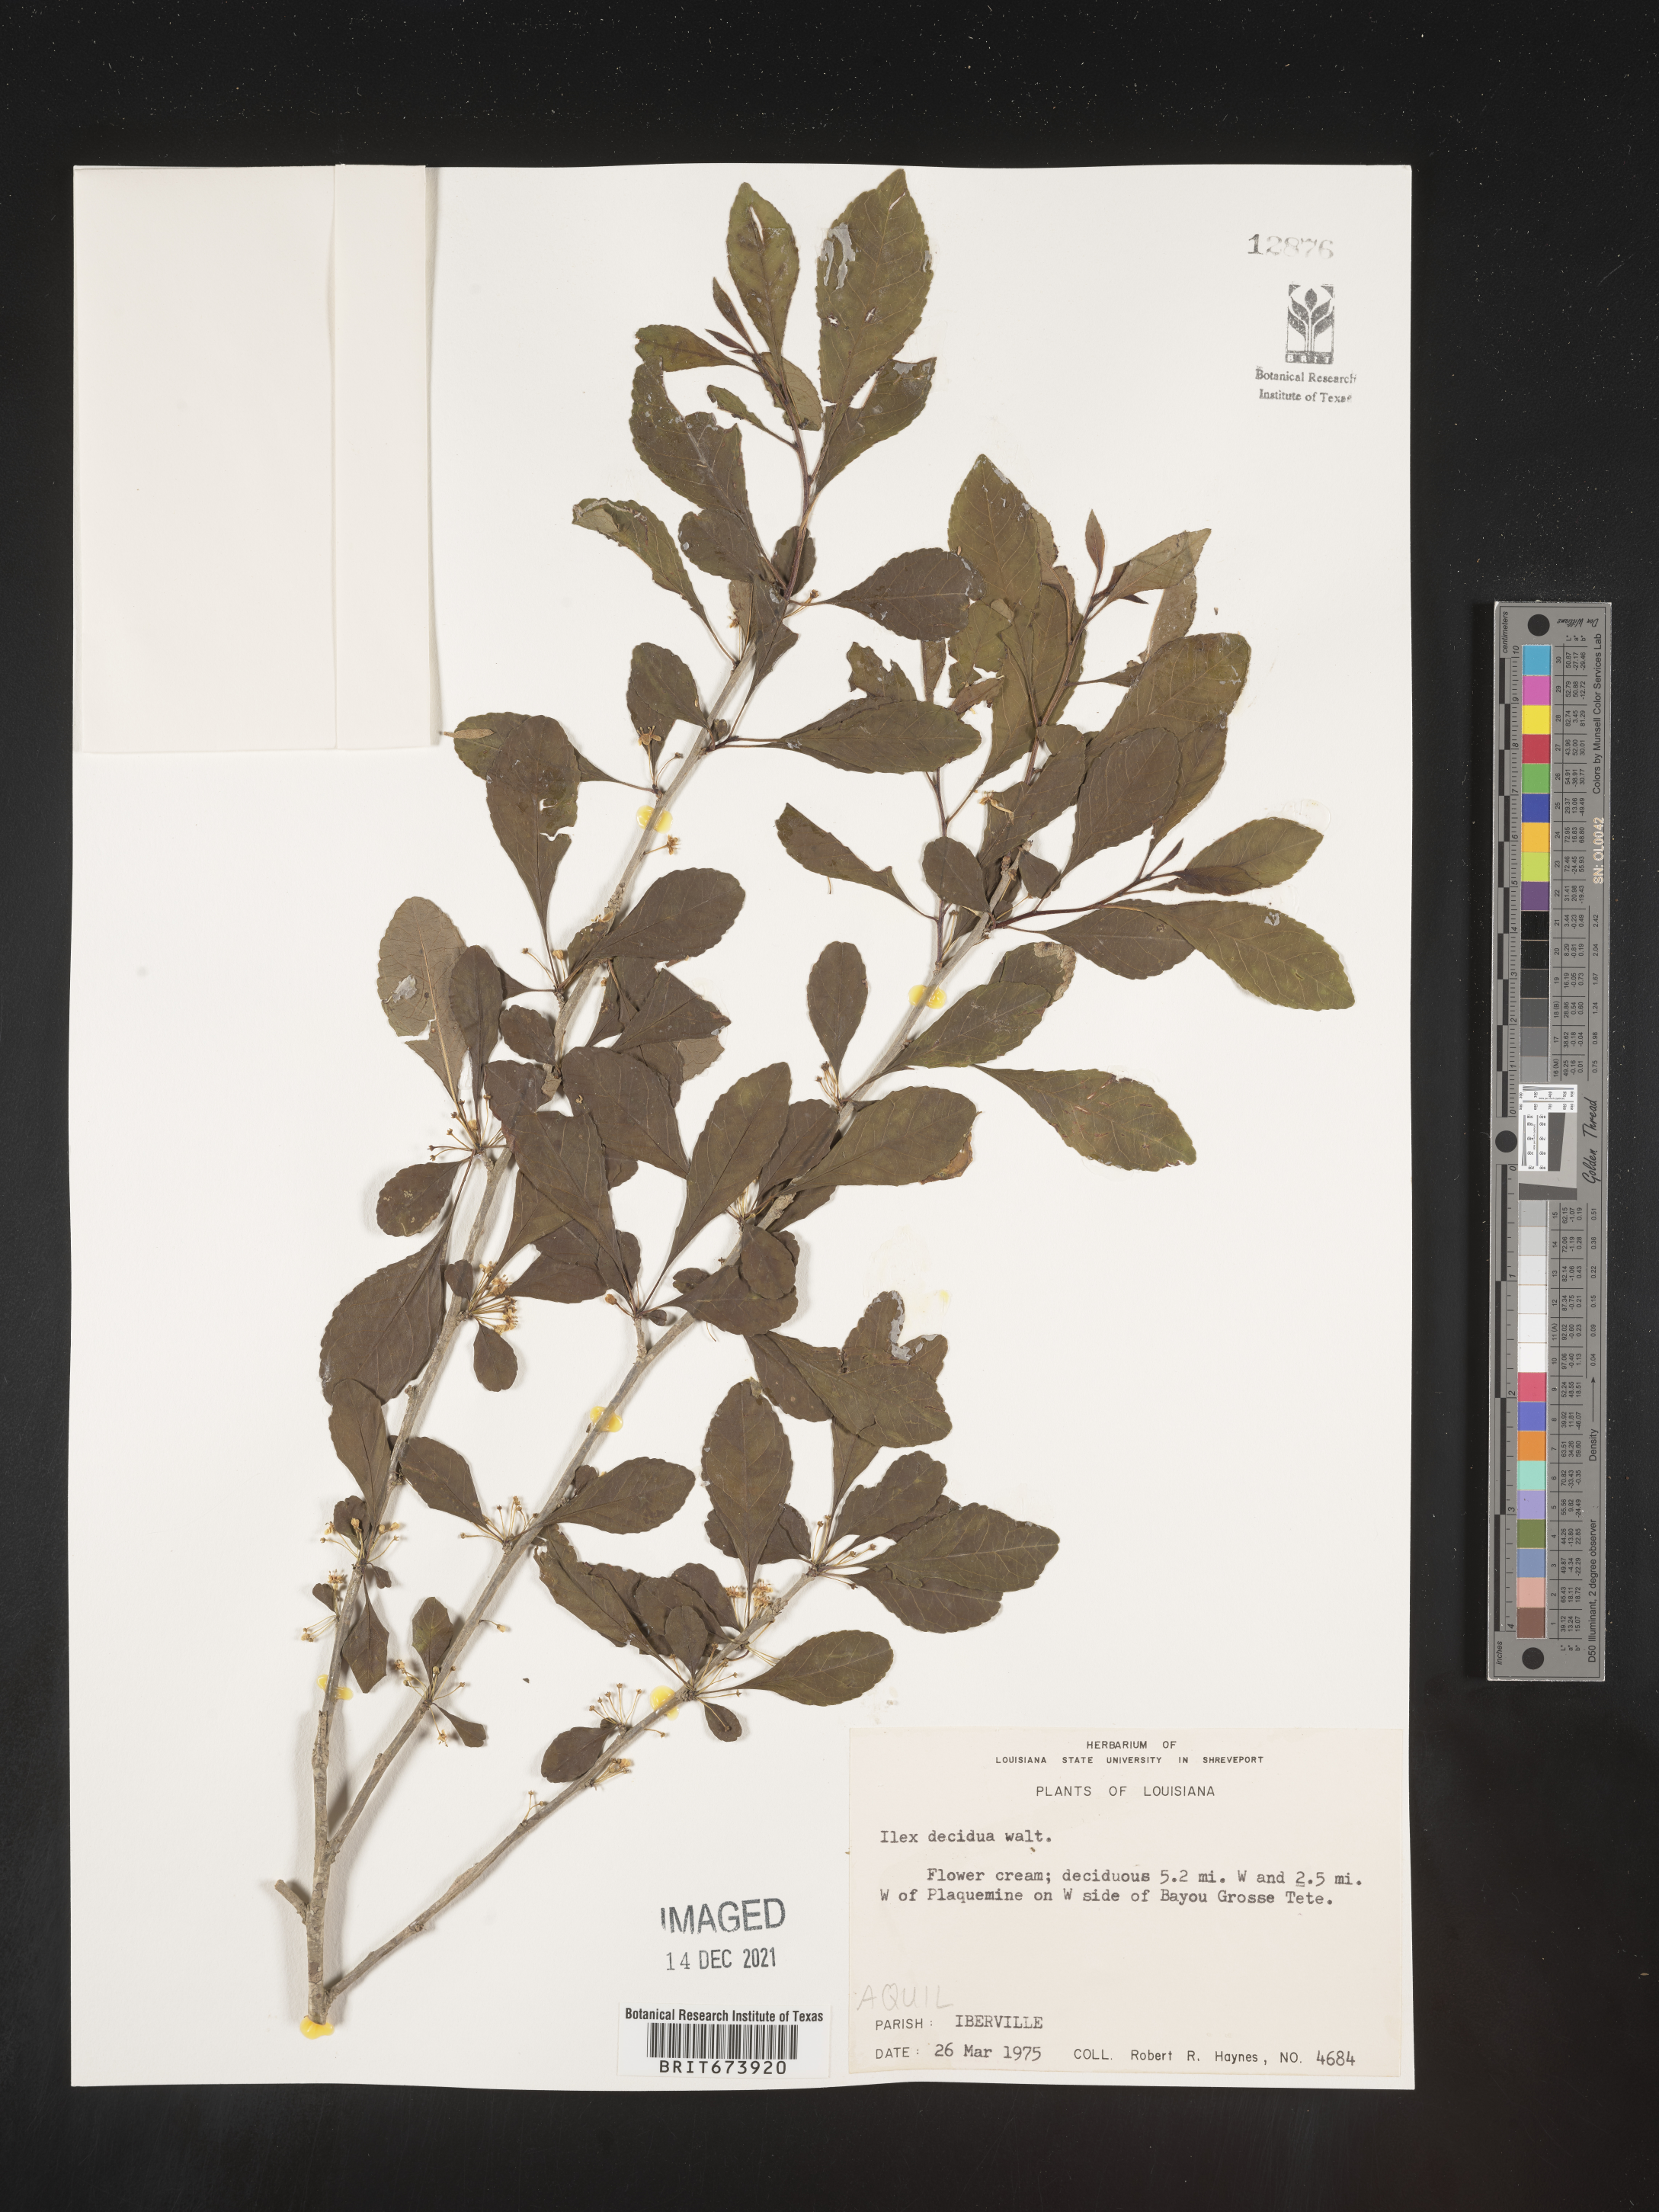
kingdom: Plantae
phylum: Tracheophyta
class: Magnoliopsida
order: Aquifoliales
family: Aquifoliaceae
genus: Ilex
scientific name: Ilex decidua
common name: Possum-haw
